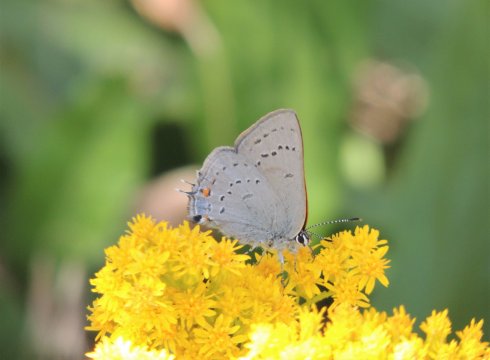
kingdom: Animalia
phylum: Arthropoda
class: Insecta
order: Lepidoptera
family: Lycaenidae
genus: Strymon
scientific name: Strymon sylvinus
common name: Sylvan Hairstreak
